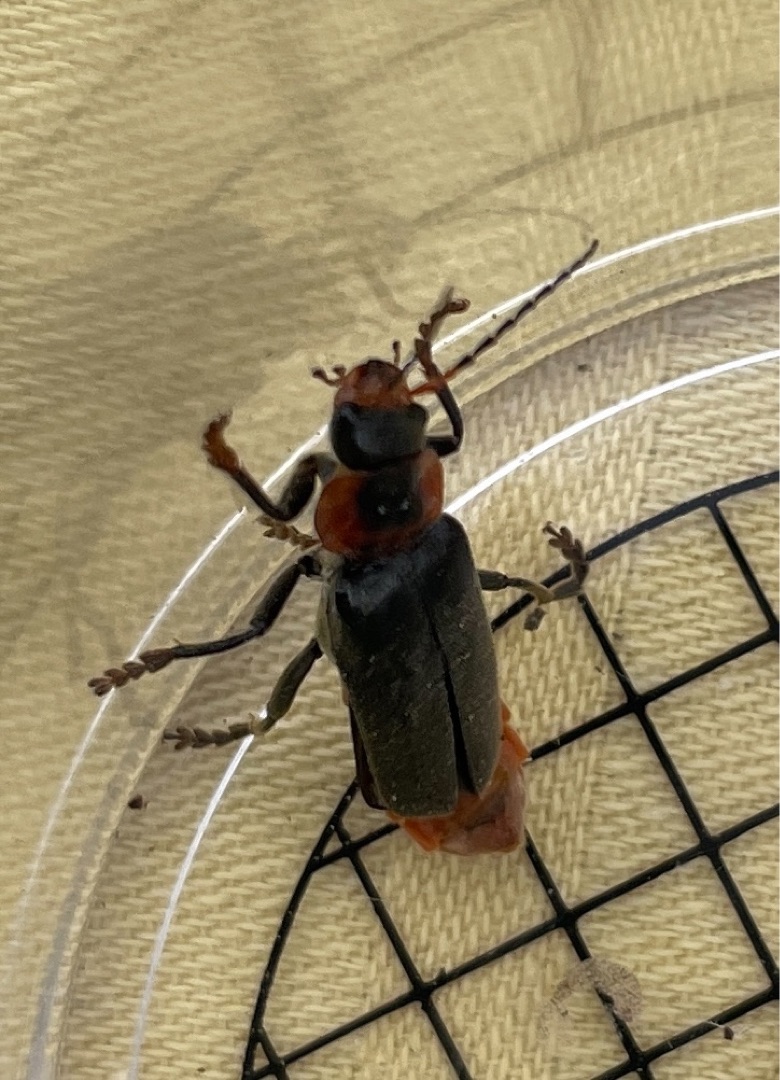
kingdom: Animalia
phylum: Arthropoda
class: Insecta
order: Coleoptera
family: Cantharidae
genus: Cantharis
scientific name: Cantharis fusca
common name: Stor blødvinge
